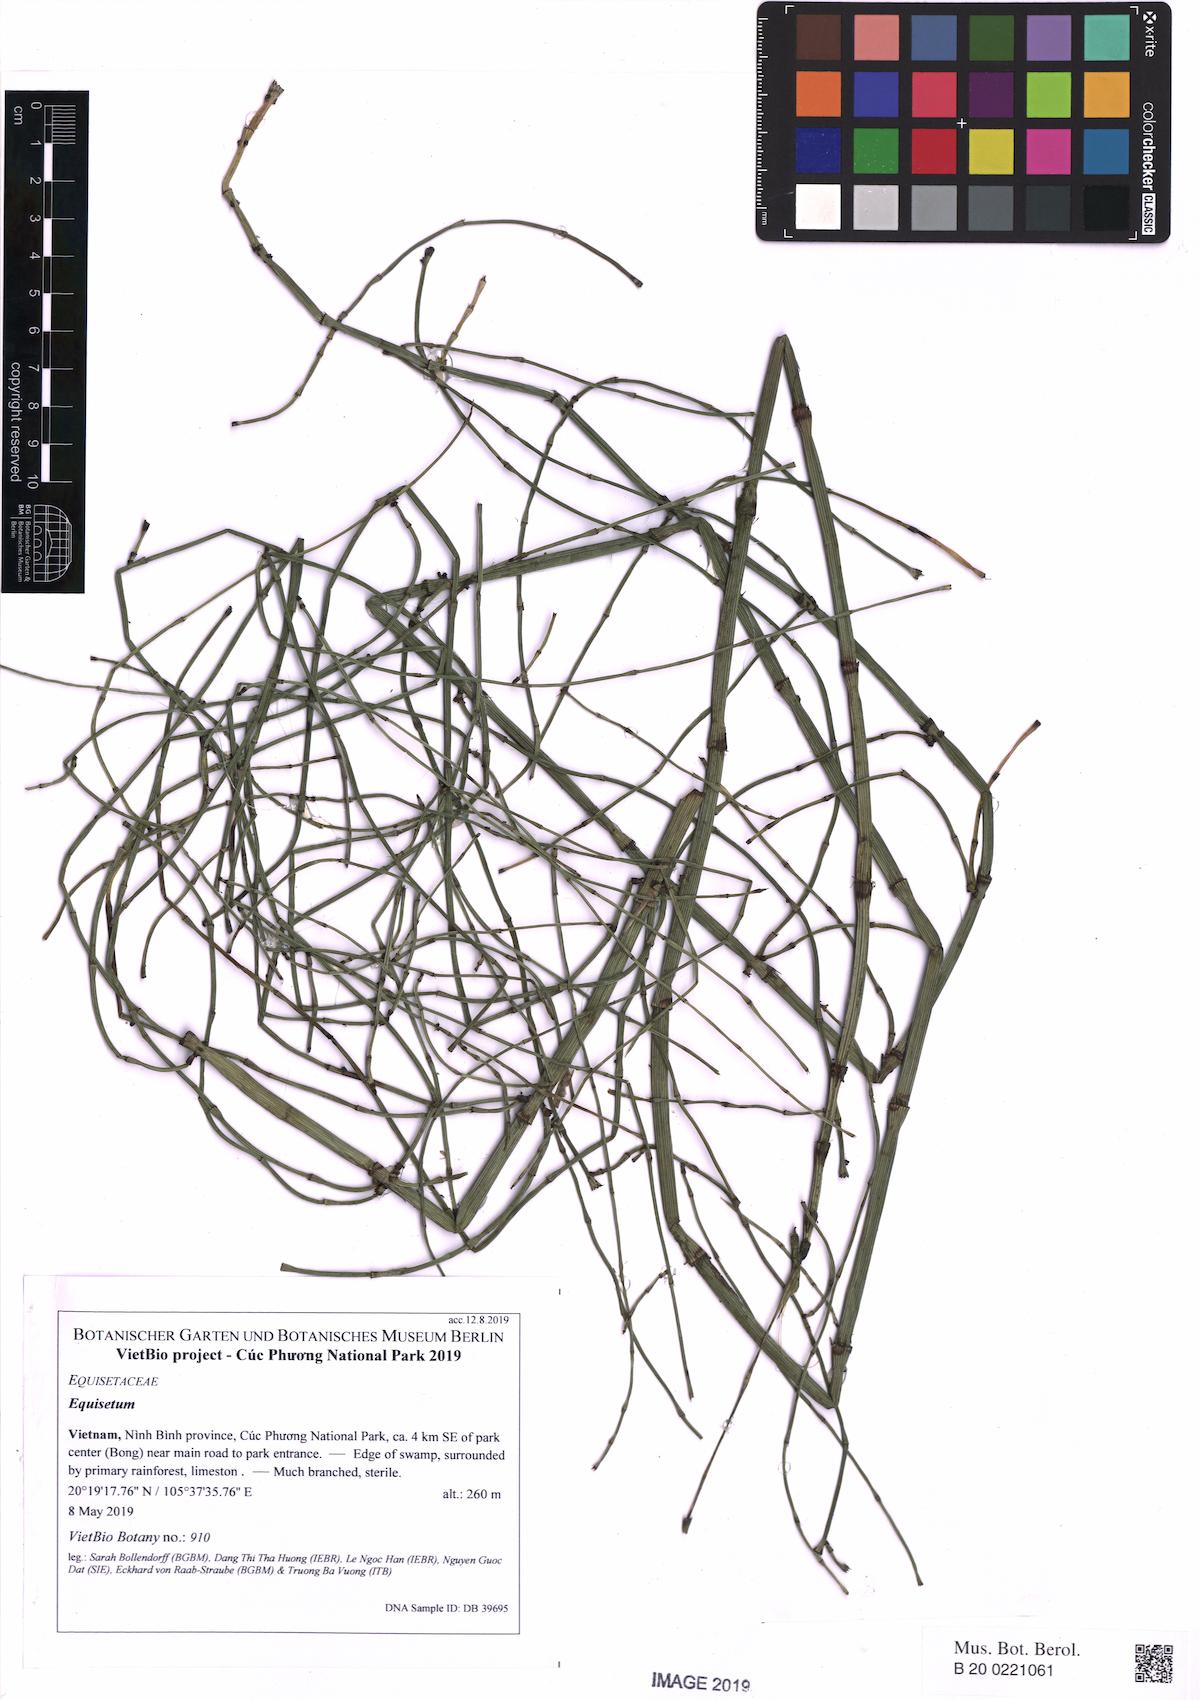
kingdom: Plantae
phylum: Tracheophyta
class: Polypodiopsida
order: Equisetales
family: Equisetaceae
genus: Equisetum
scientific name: Equisetum ramosissimum
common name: Branched horsetail
